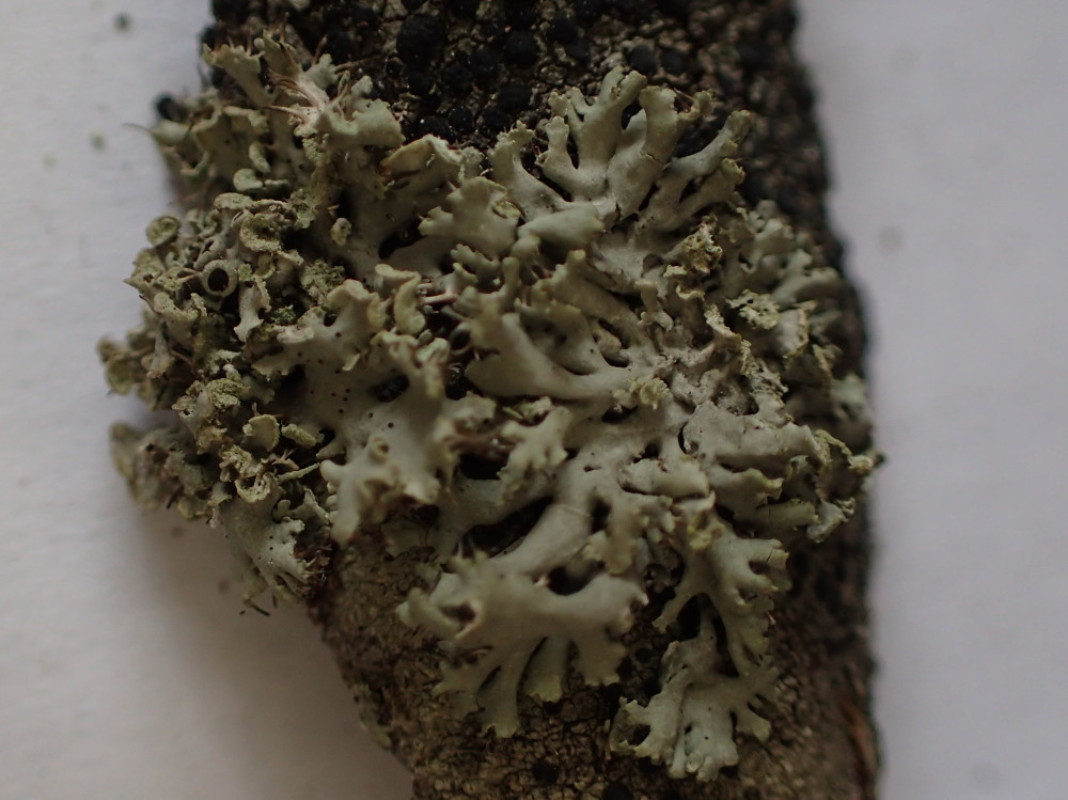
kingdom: Fungi
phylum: Ascomycota
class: Lecanoromycetes
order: Caliciales
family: Physciaceae
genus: Physcia
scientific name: Physcia tenella
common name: spæd rosetlav
